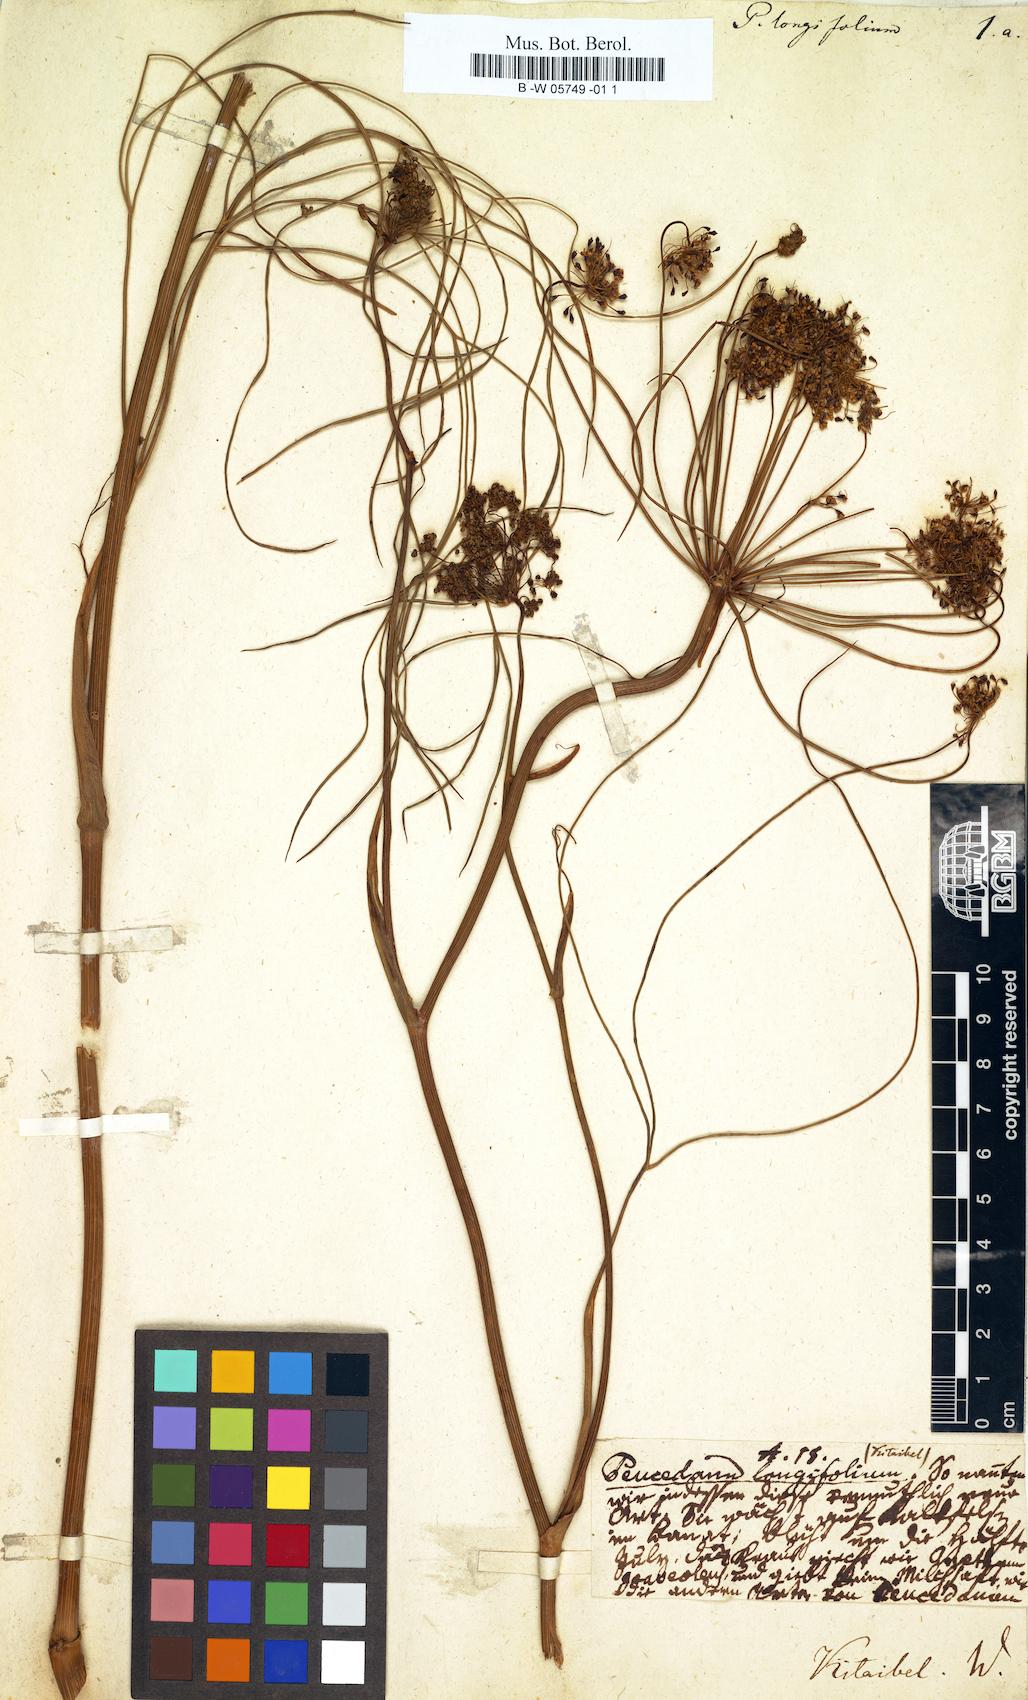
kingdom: Plantae
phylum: Tracheophyta
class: Magnoliopsida
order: Apiales
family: Apiaceae
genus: Peucedanum
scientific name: Peucedanum longifolium
